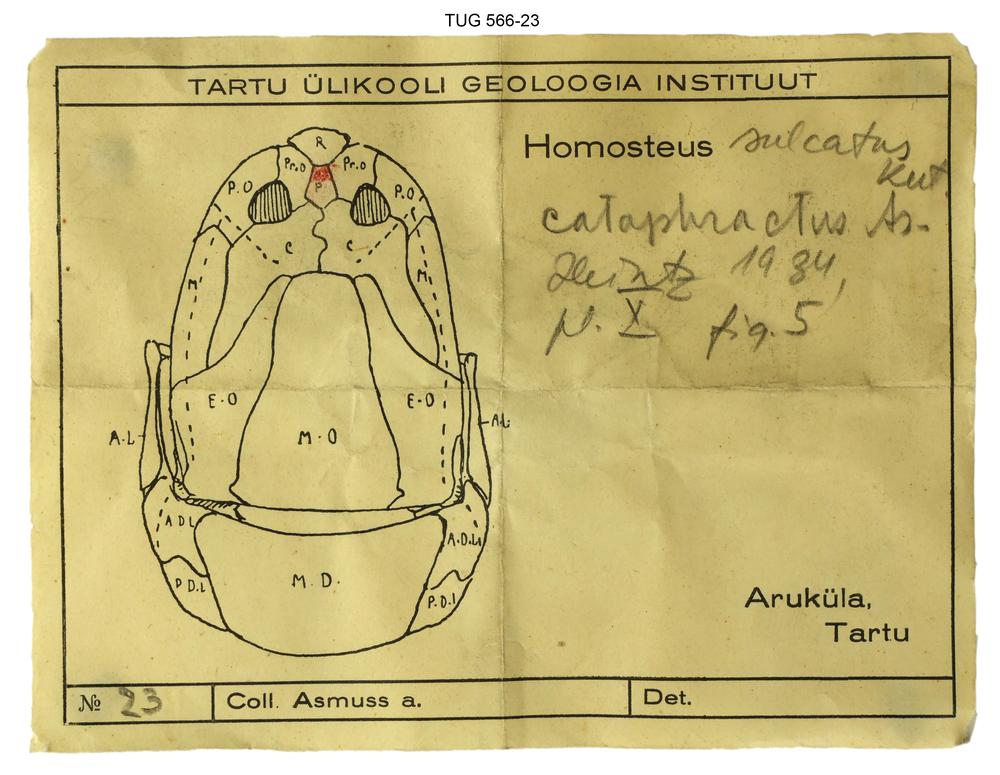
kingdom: Animalia
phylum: Chordata
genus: Homosteus
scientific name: Homosteus sulcatus
